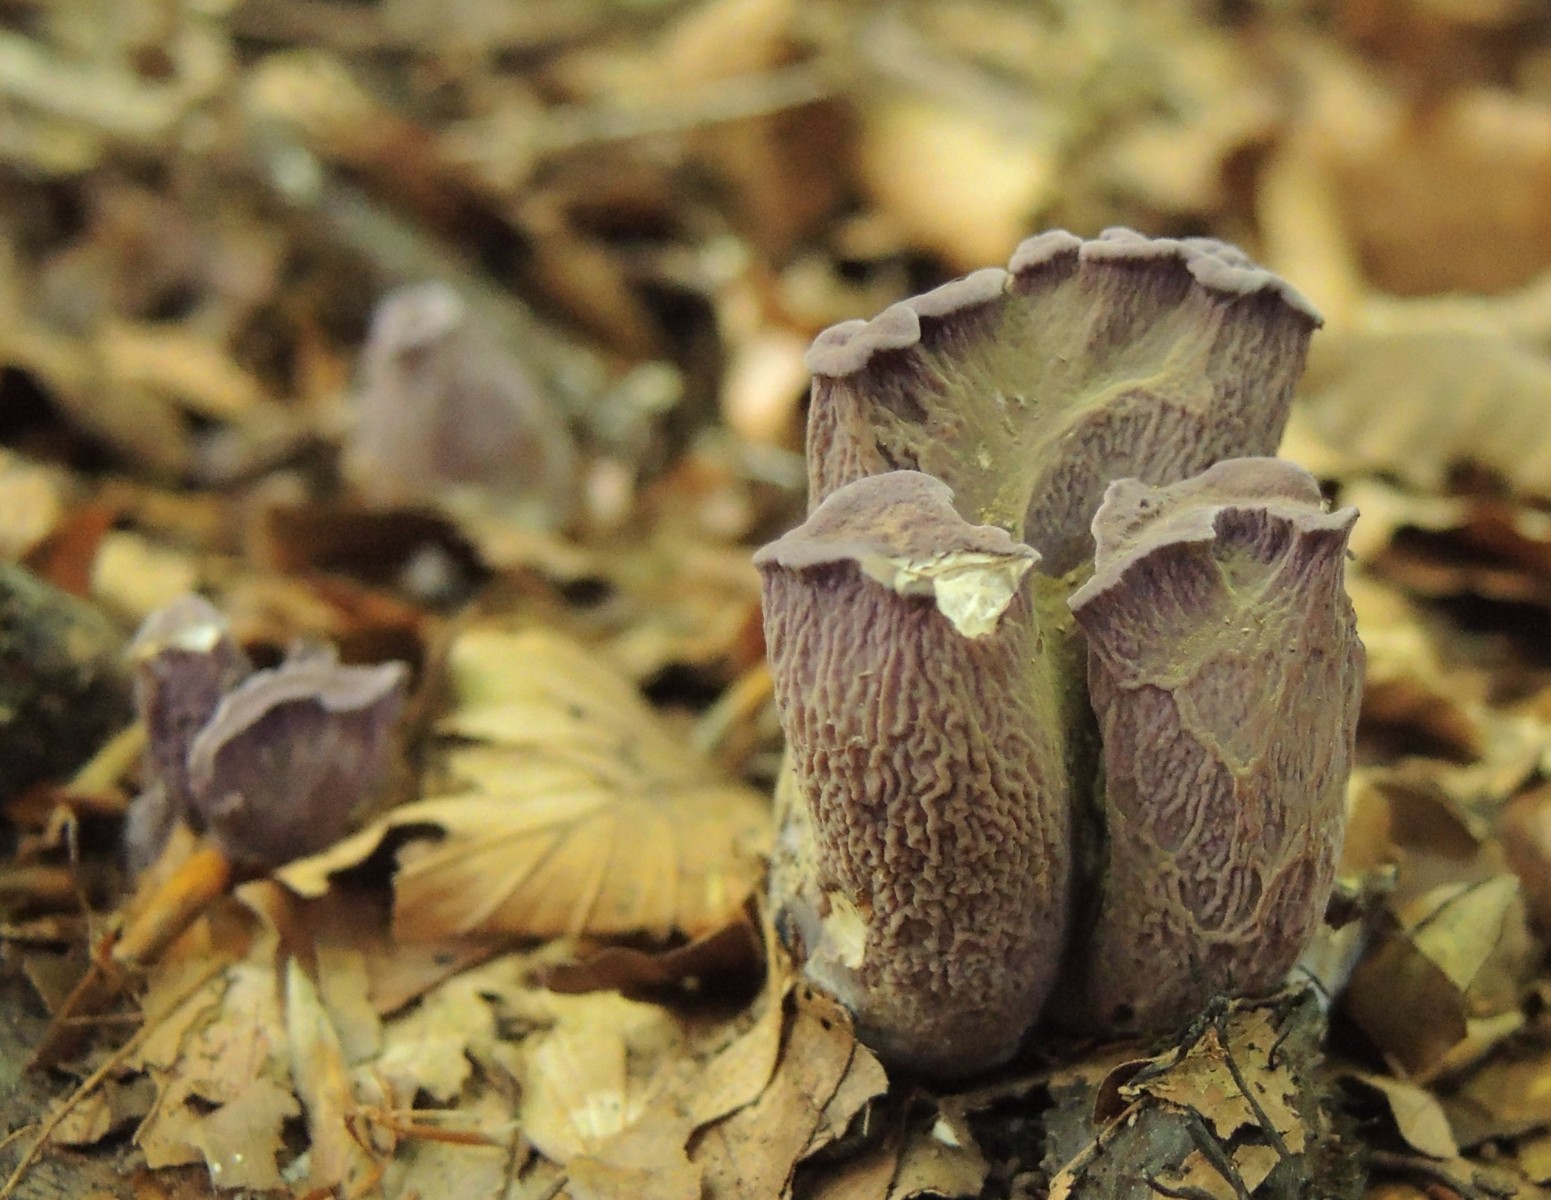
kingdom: Fungi
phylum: Basidiomycota
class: Agaricomycetes
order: Gomphales
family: Gomphaceae
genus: Gomphus
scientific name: Gomphus clavatus
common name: køllekantarel
